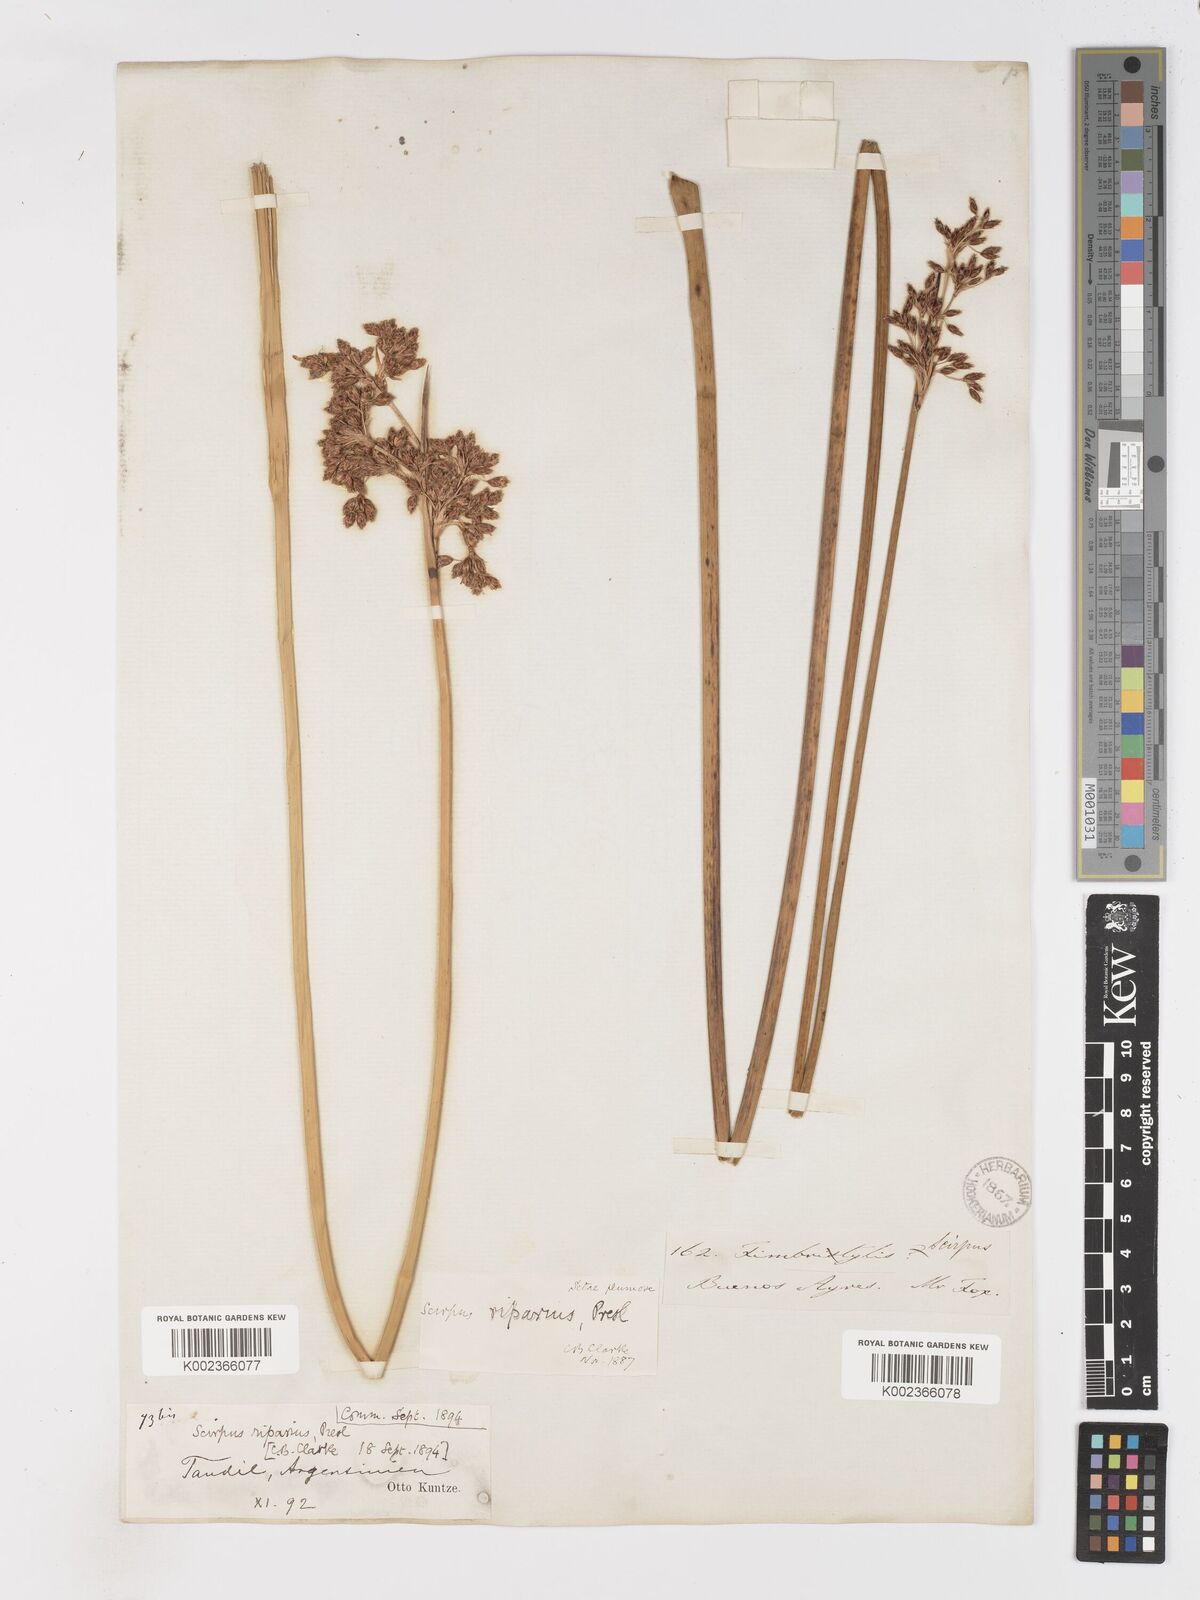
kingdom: Plantae
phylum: Tracheophyta
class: Liliopsida
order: Poales
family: Cyperaceae
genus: Schoenoplectus
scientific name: Schoenoplectus californicus
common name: California bulrush
